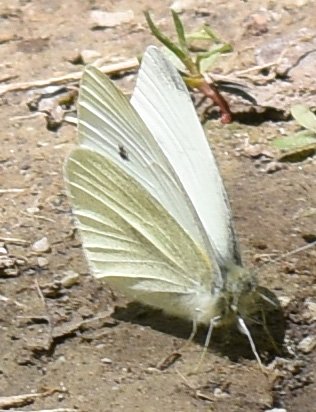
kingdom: Animalia
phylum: Arthropoda
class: Insecta
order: Lepidoptera
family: Pieridae
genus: Pieris
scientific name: Pieris rapae
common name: Cabbage White
